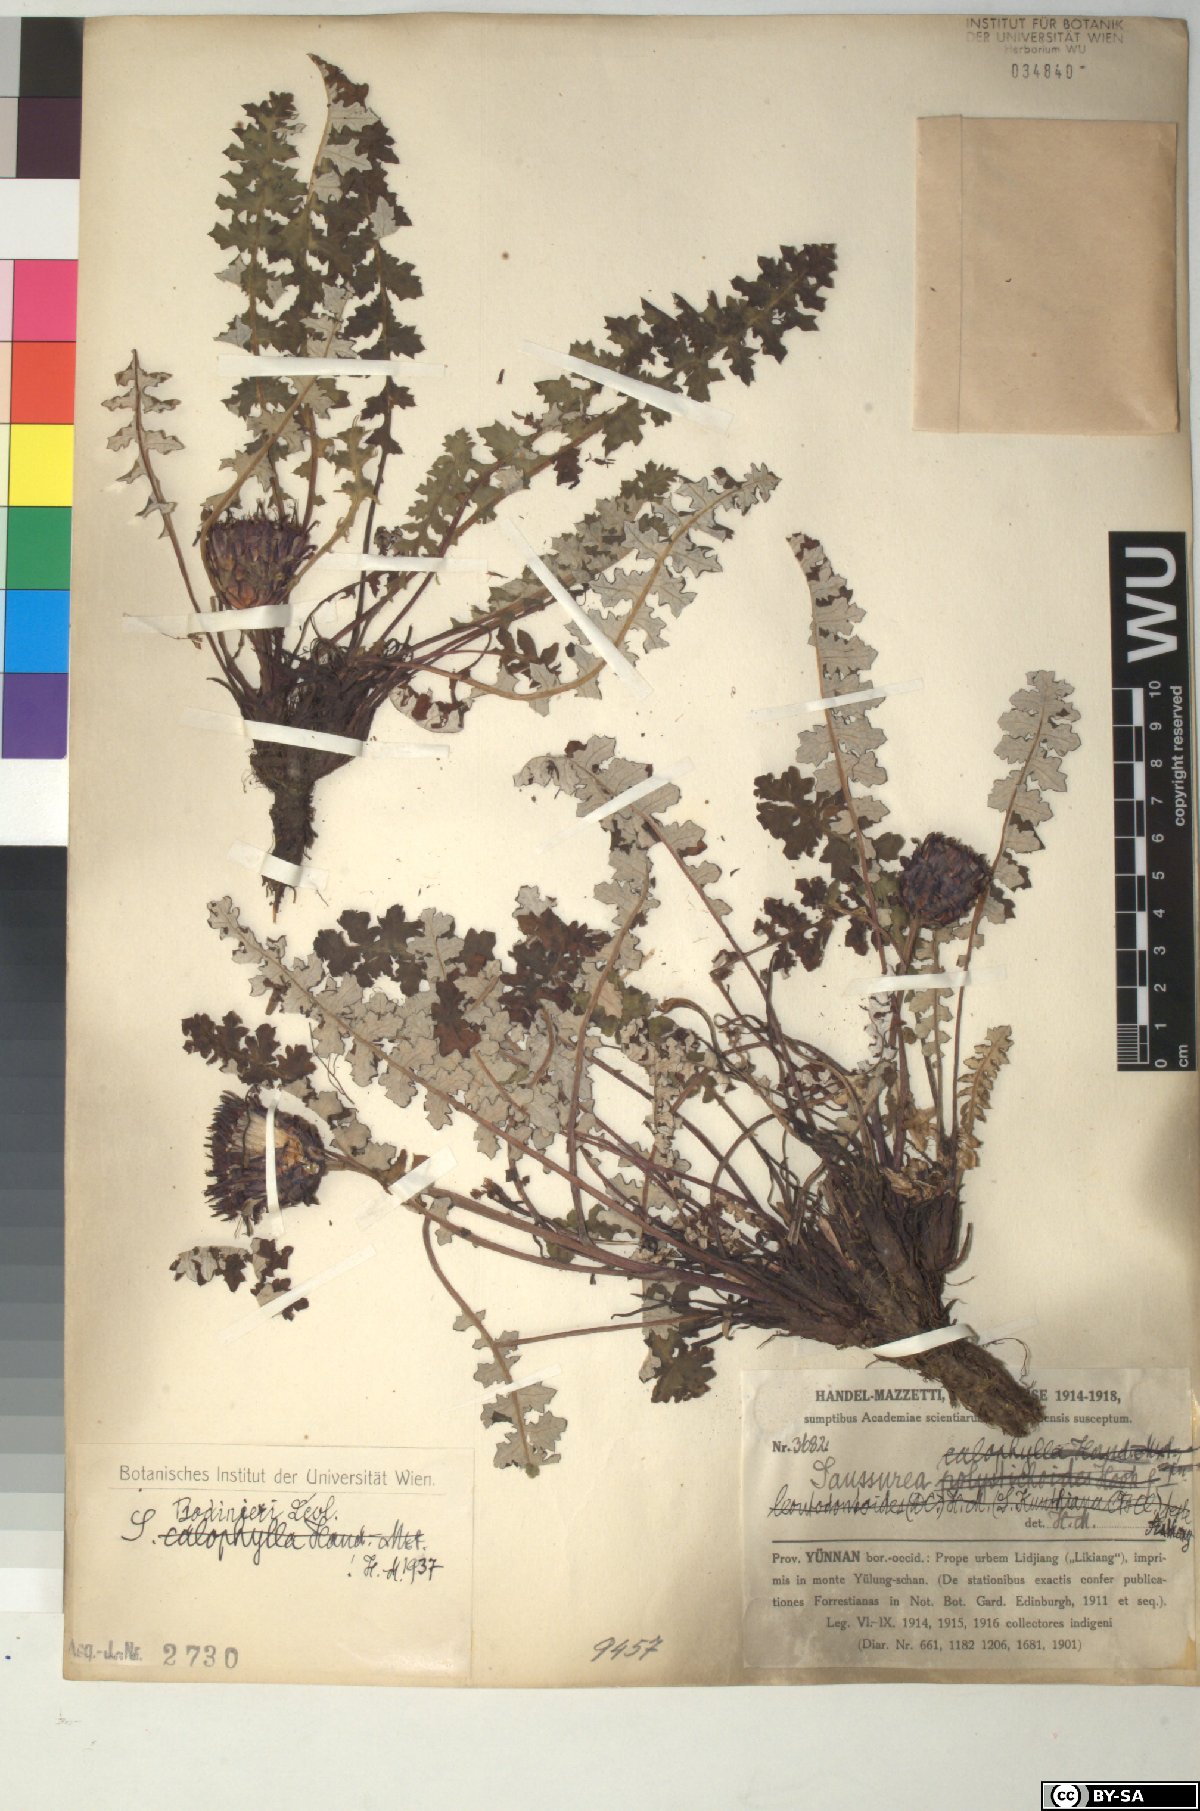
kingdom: Plantae
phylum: Tracheophyta
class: Magnoliopsida
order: Asterales
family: Asteraceae
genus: Saussurea
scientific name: Saussurea pachyneura
